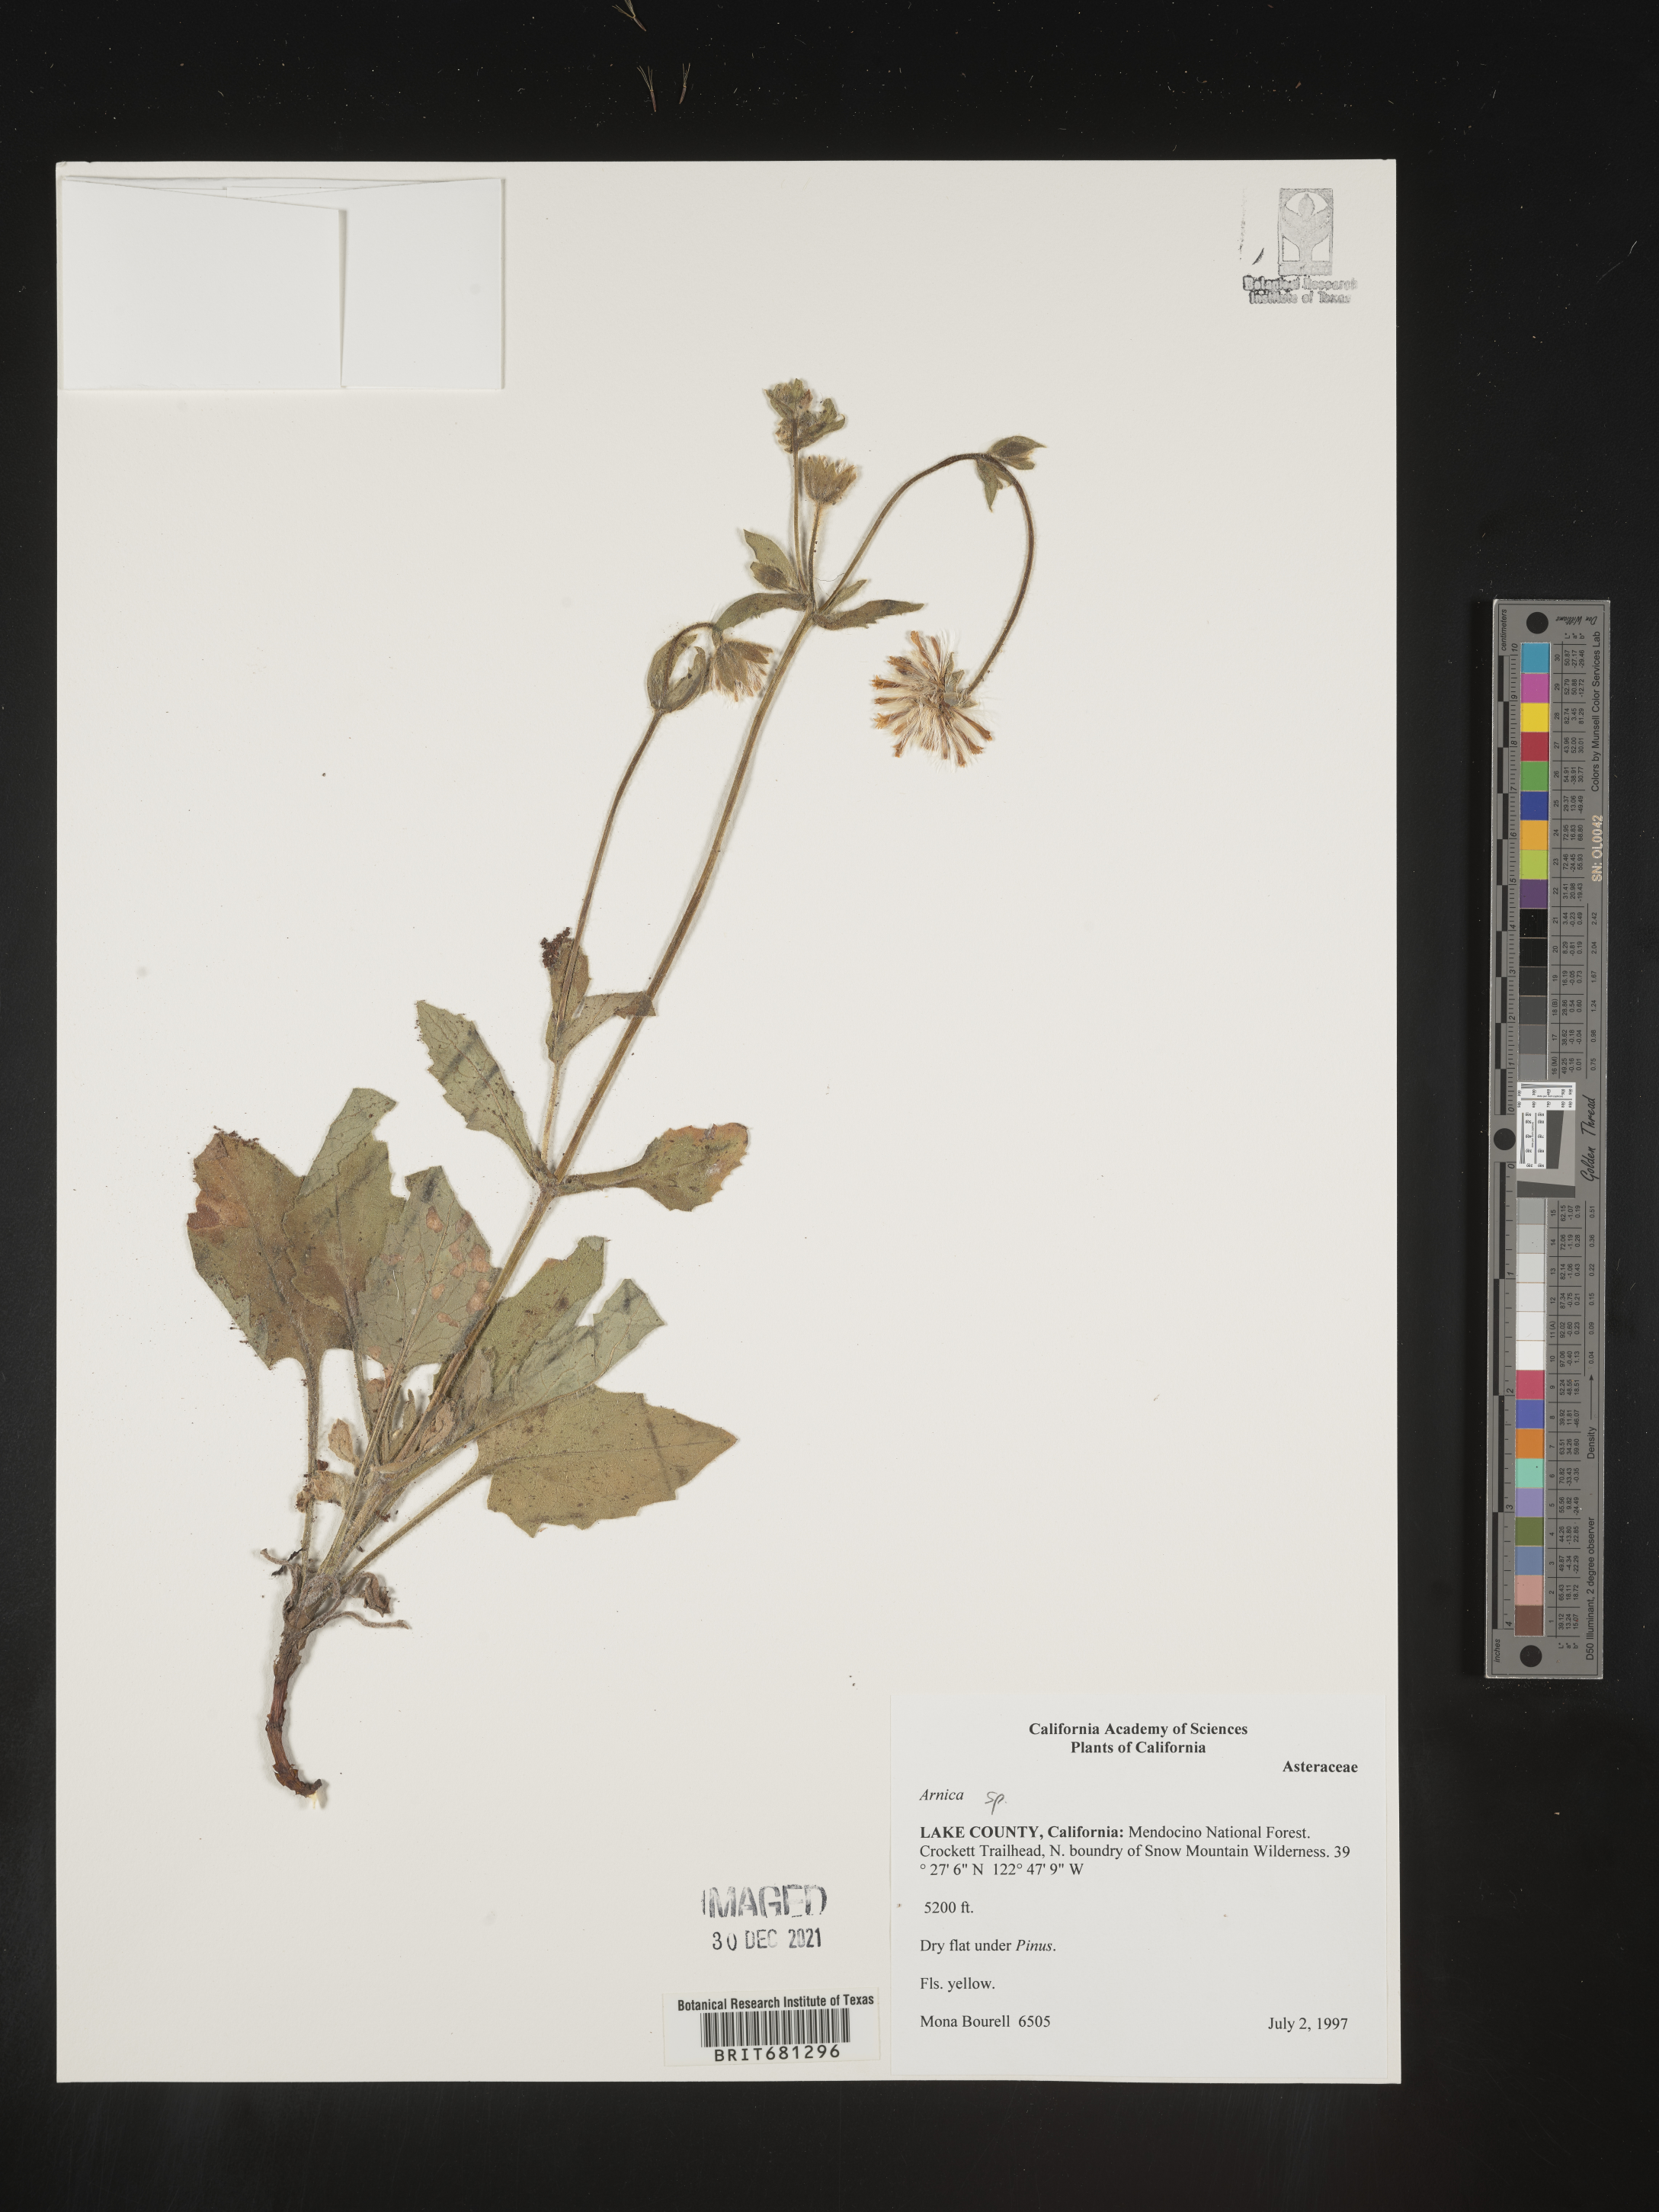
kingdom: Plantae
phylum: Tracheophyta
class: Magnoliopsida
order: Asterales
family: Asteraceae
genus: Arnica
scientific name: Arnica
